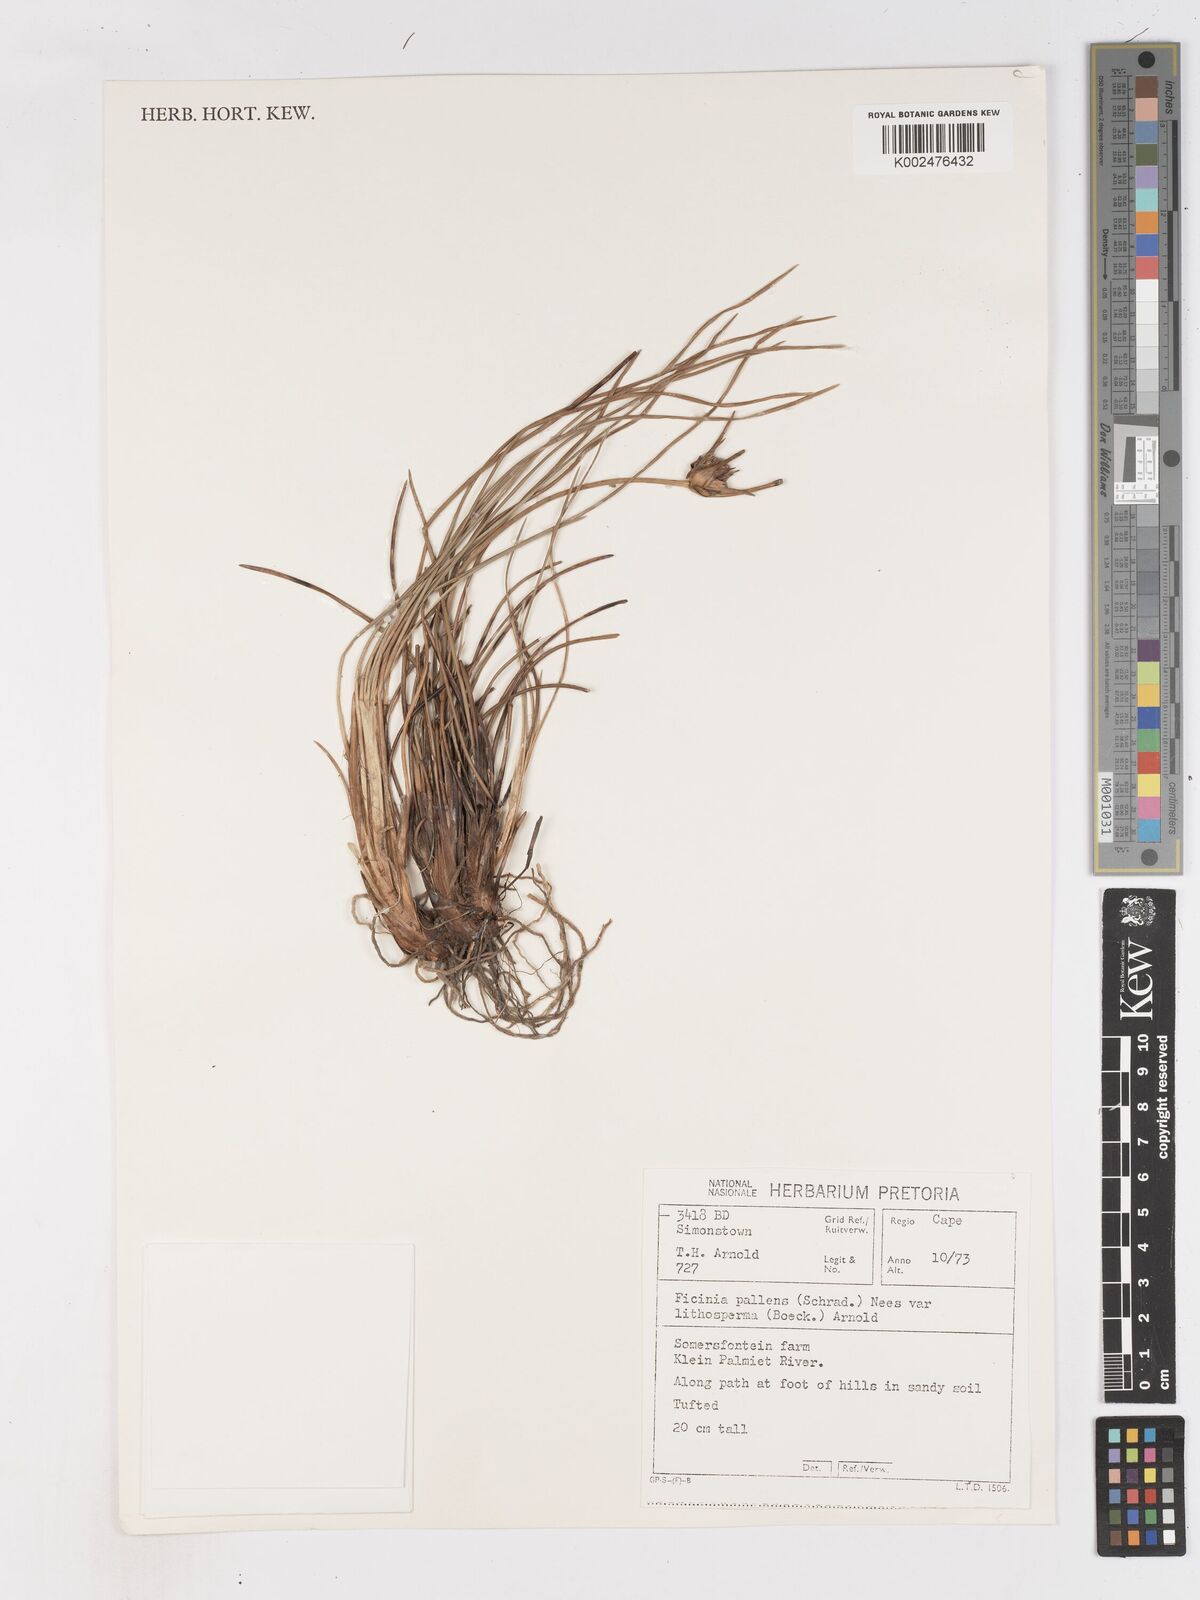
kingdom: Plantae
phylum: Tracheophyta
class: Liliopsida
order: Poales
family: Cyperaceae
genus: Ficinia
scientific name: Ficinia pallens
